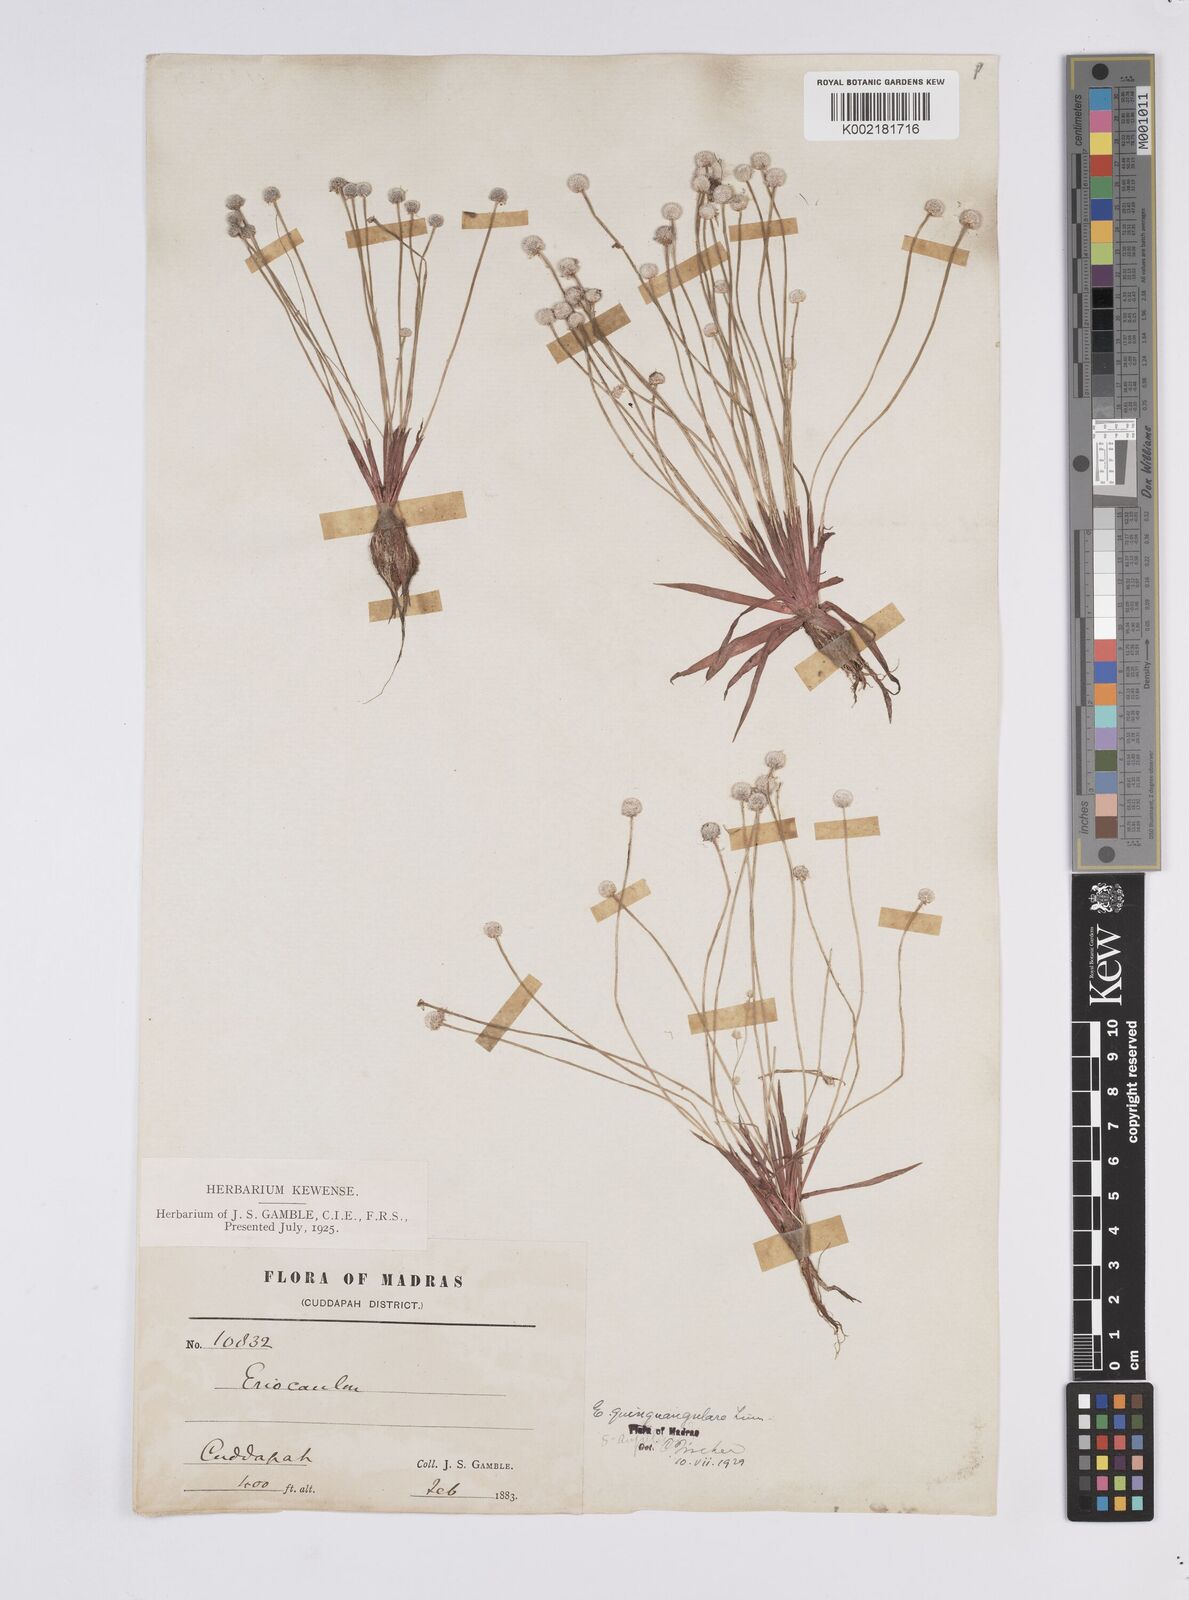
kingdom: Plantae
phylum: Tracheophyta
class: Liliopsida
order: Poales
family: Eriocaulaceae
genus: Eriocaulon
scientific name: Eriocaulon quinquangulare
